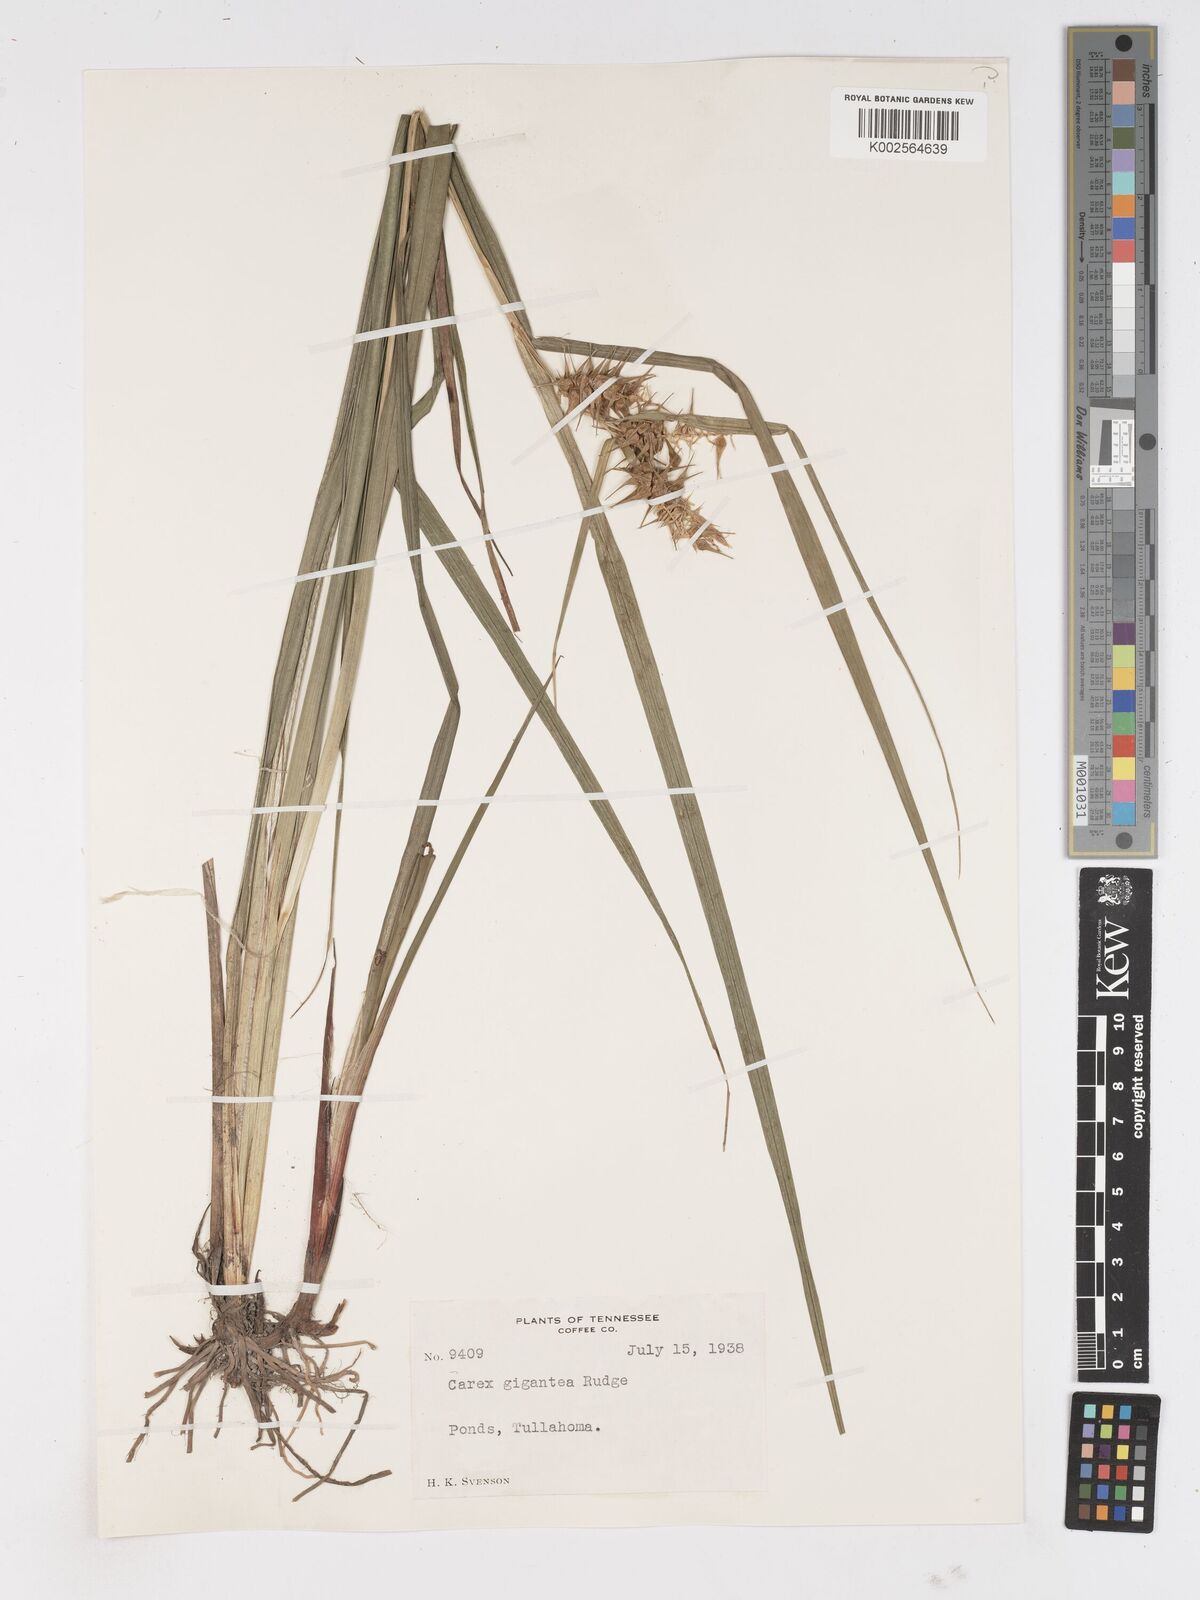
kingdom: Plantae
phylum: Tracheophyta
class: Liliopsida
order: Poales
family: Cyperaceae
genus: Carex
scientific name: Carex gigantea
